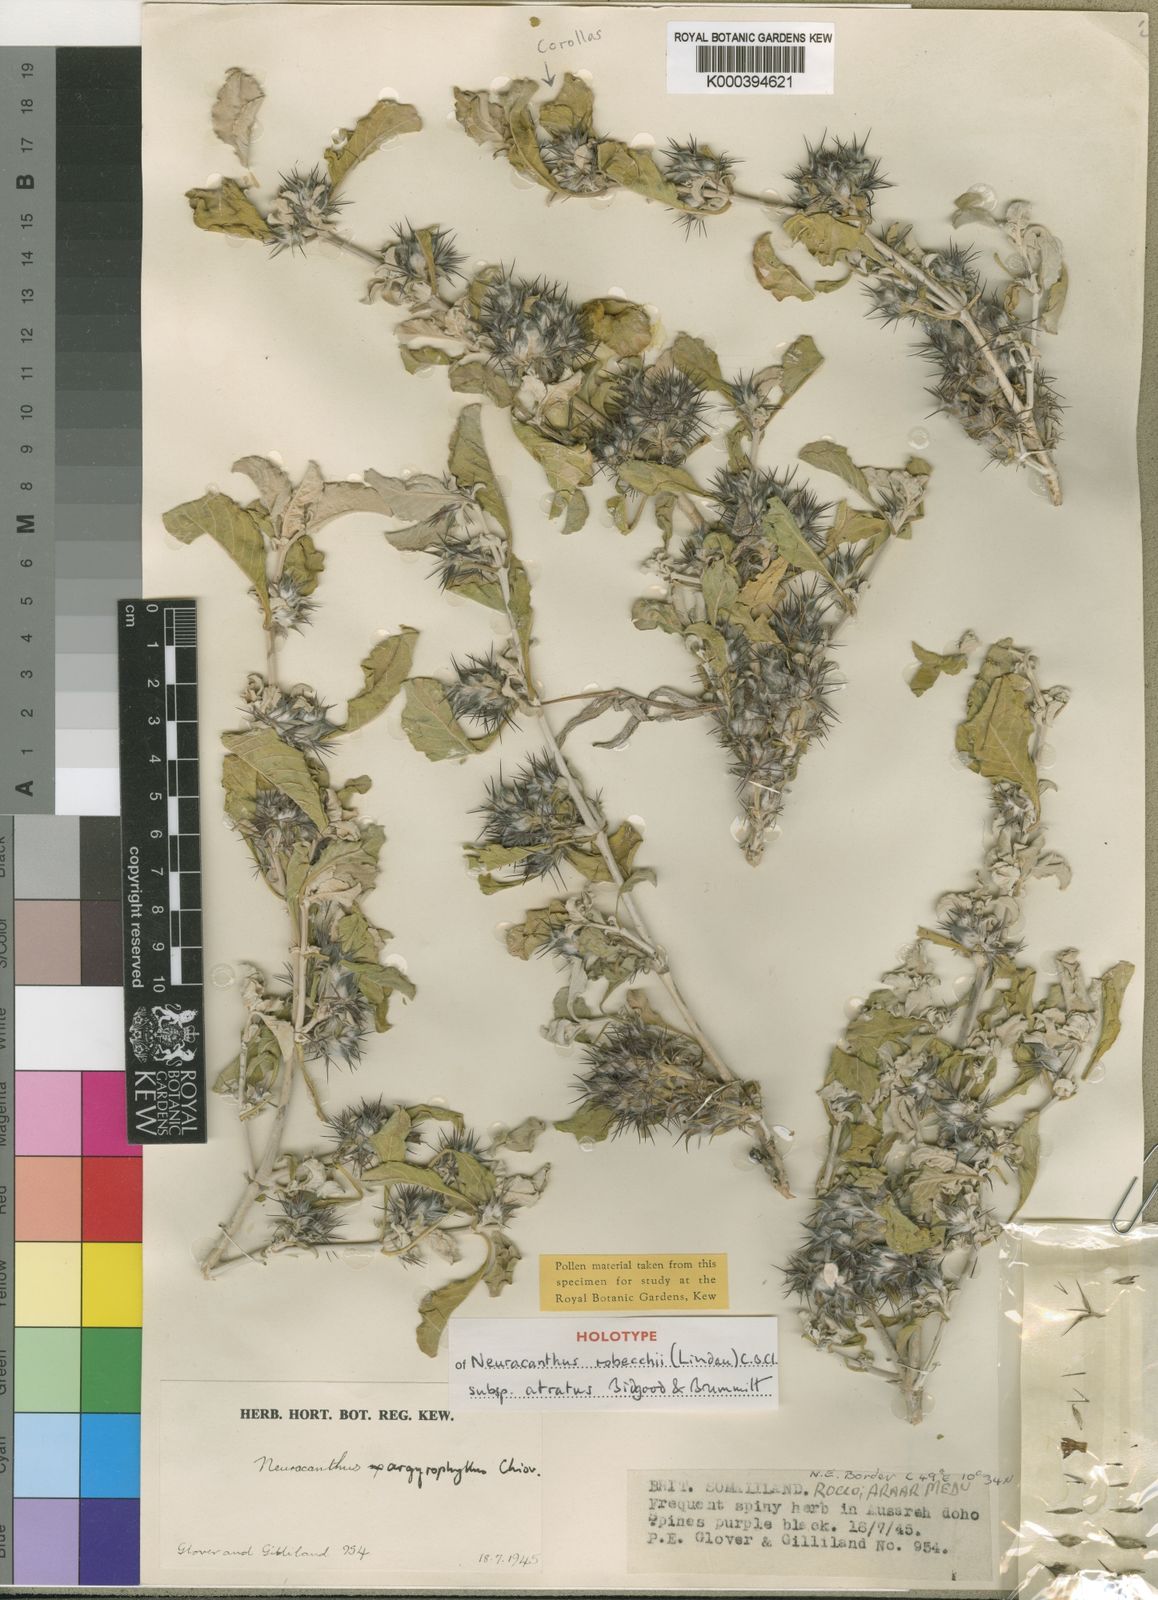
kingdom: Plantae
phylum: Tracheophyta
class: Magnoliopsida
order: Lamiales
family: Acanthaceae
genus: Neuracanthus
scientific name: Neuracanthus robecchii
